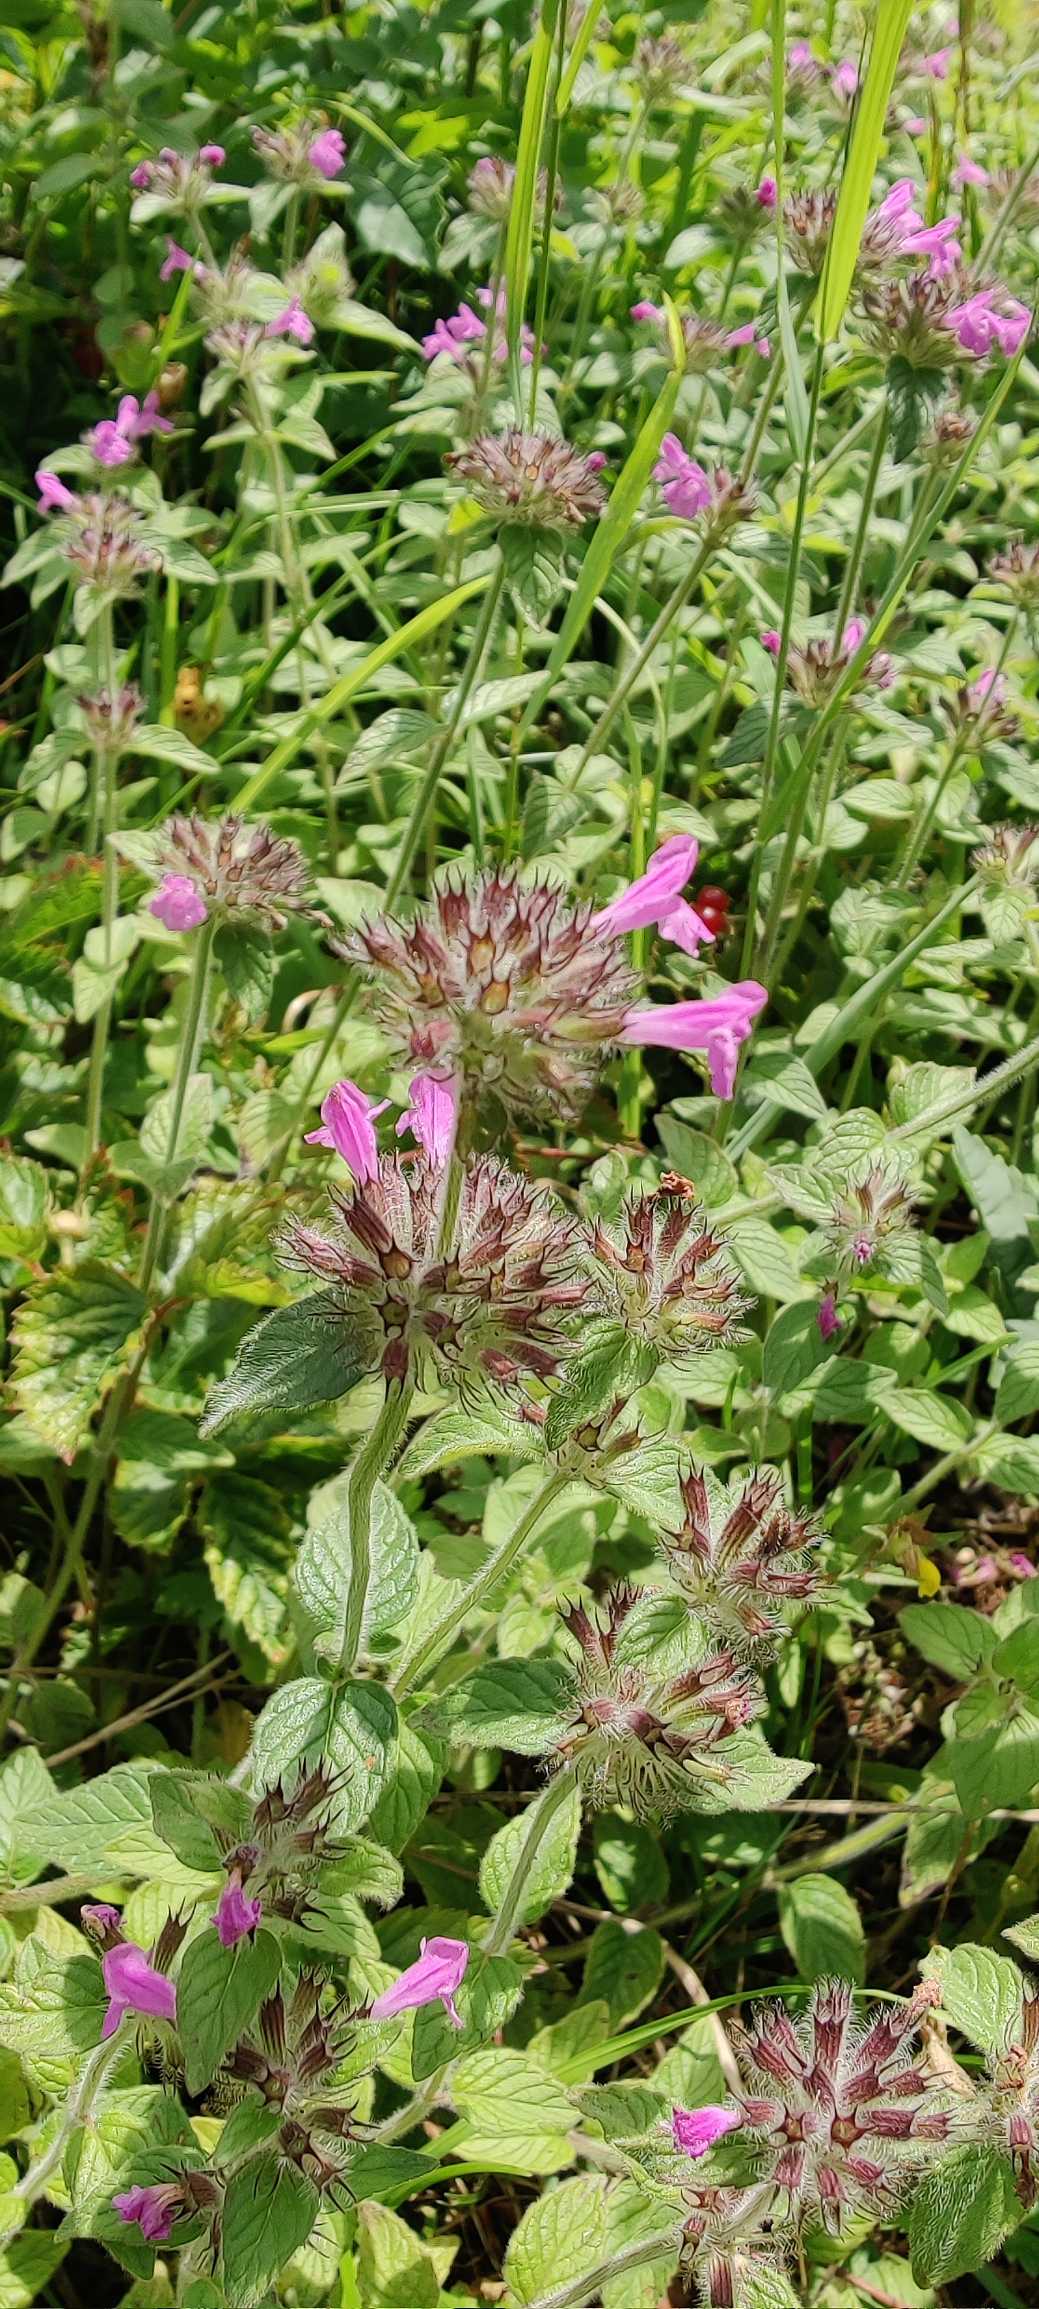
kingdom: Plantae
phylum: Tracheophyta
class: Magnoliopsida
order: Lamiales
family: Lamiaceae
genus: Clinopodium
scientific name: Clinopodium vulgare
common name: Kransbørste
